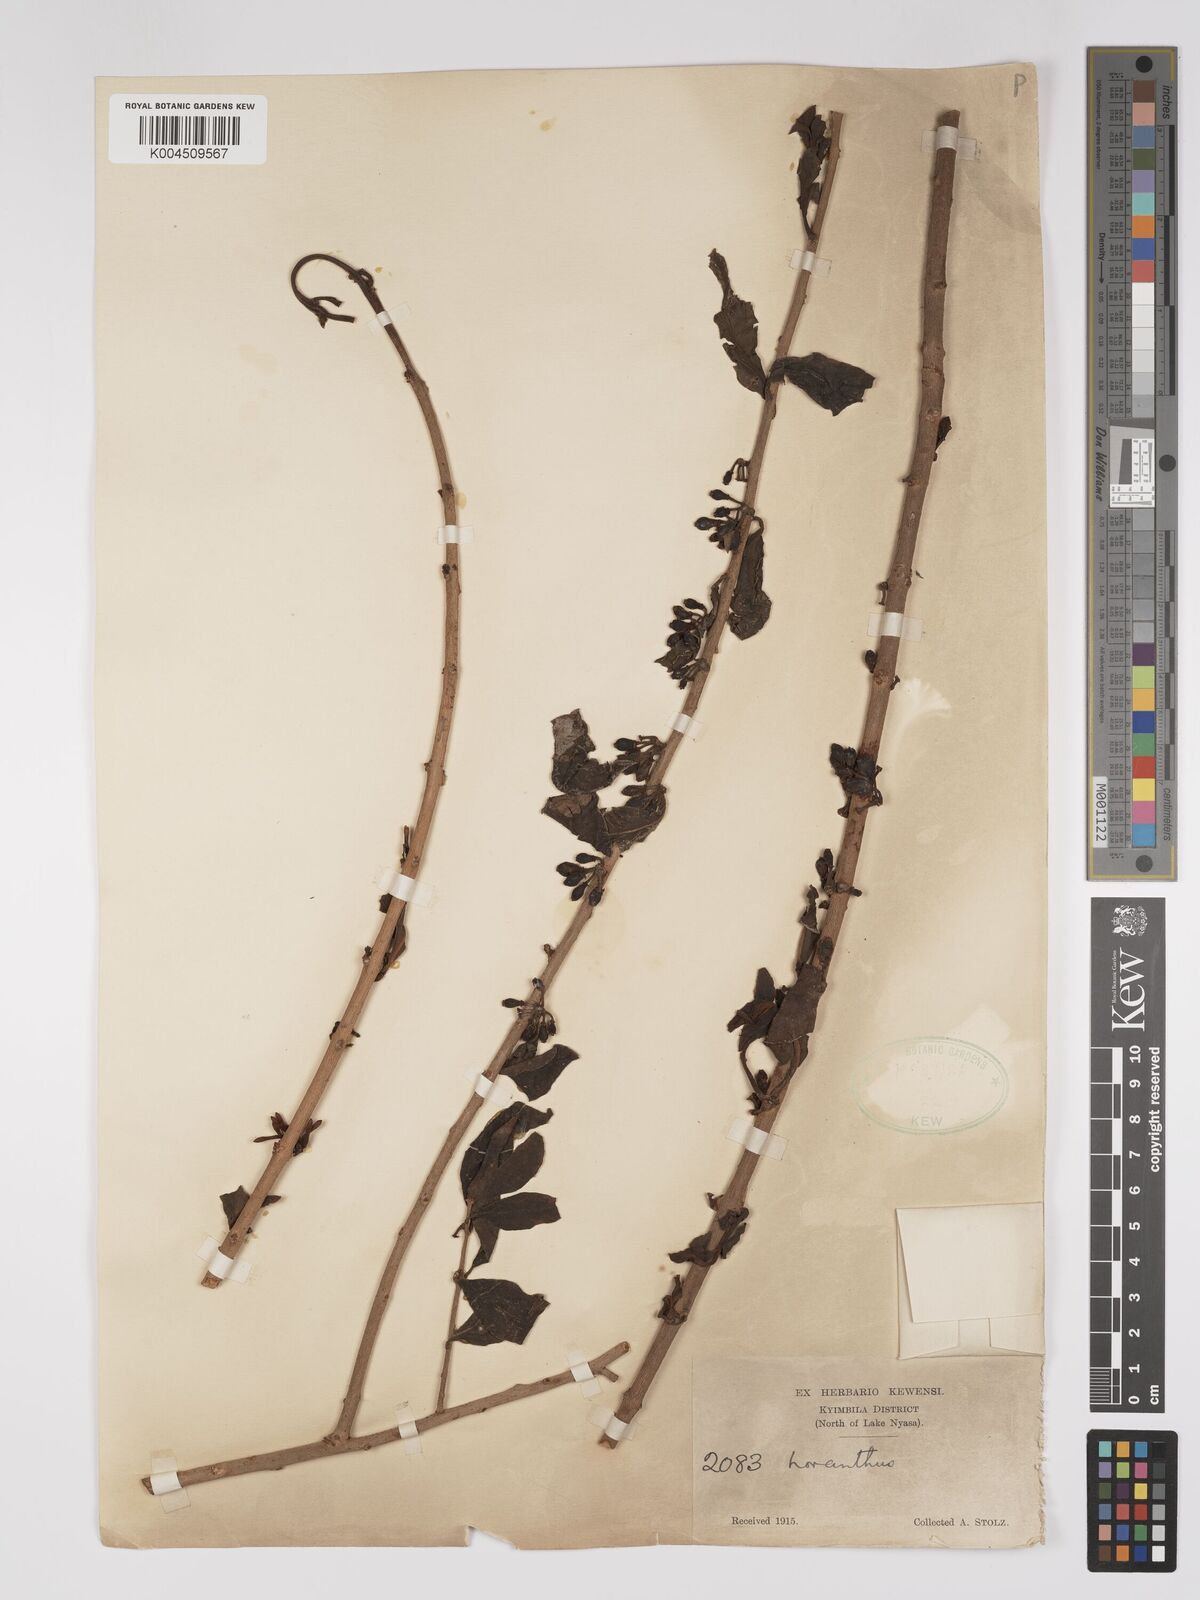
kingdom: Plantae
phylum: Tracheophyta
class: Magnoliopsida
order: Santalales
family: Loranthaceae
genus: Englerina
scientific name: Englerina inaequilatera
